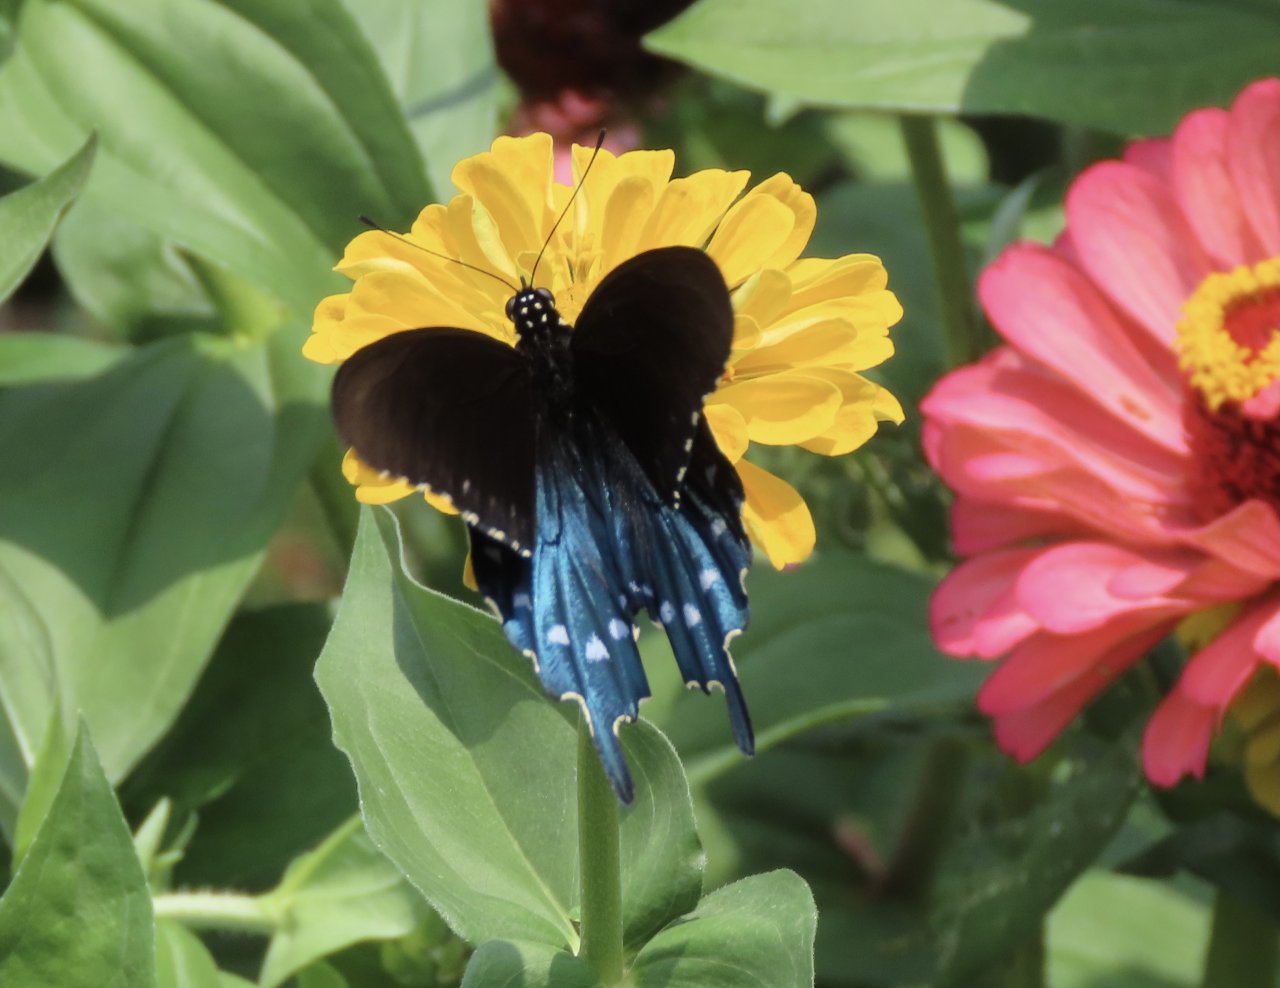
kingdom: Animalia
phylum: Arthropoda
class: Insecta
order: Lepidoptera
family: Papilionidae
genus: Battus
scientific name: Battus philenor
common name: Pipevine Swallowtail
